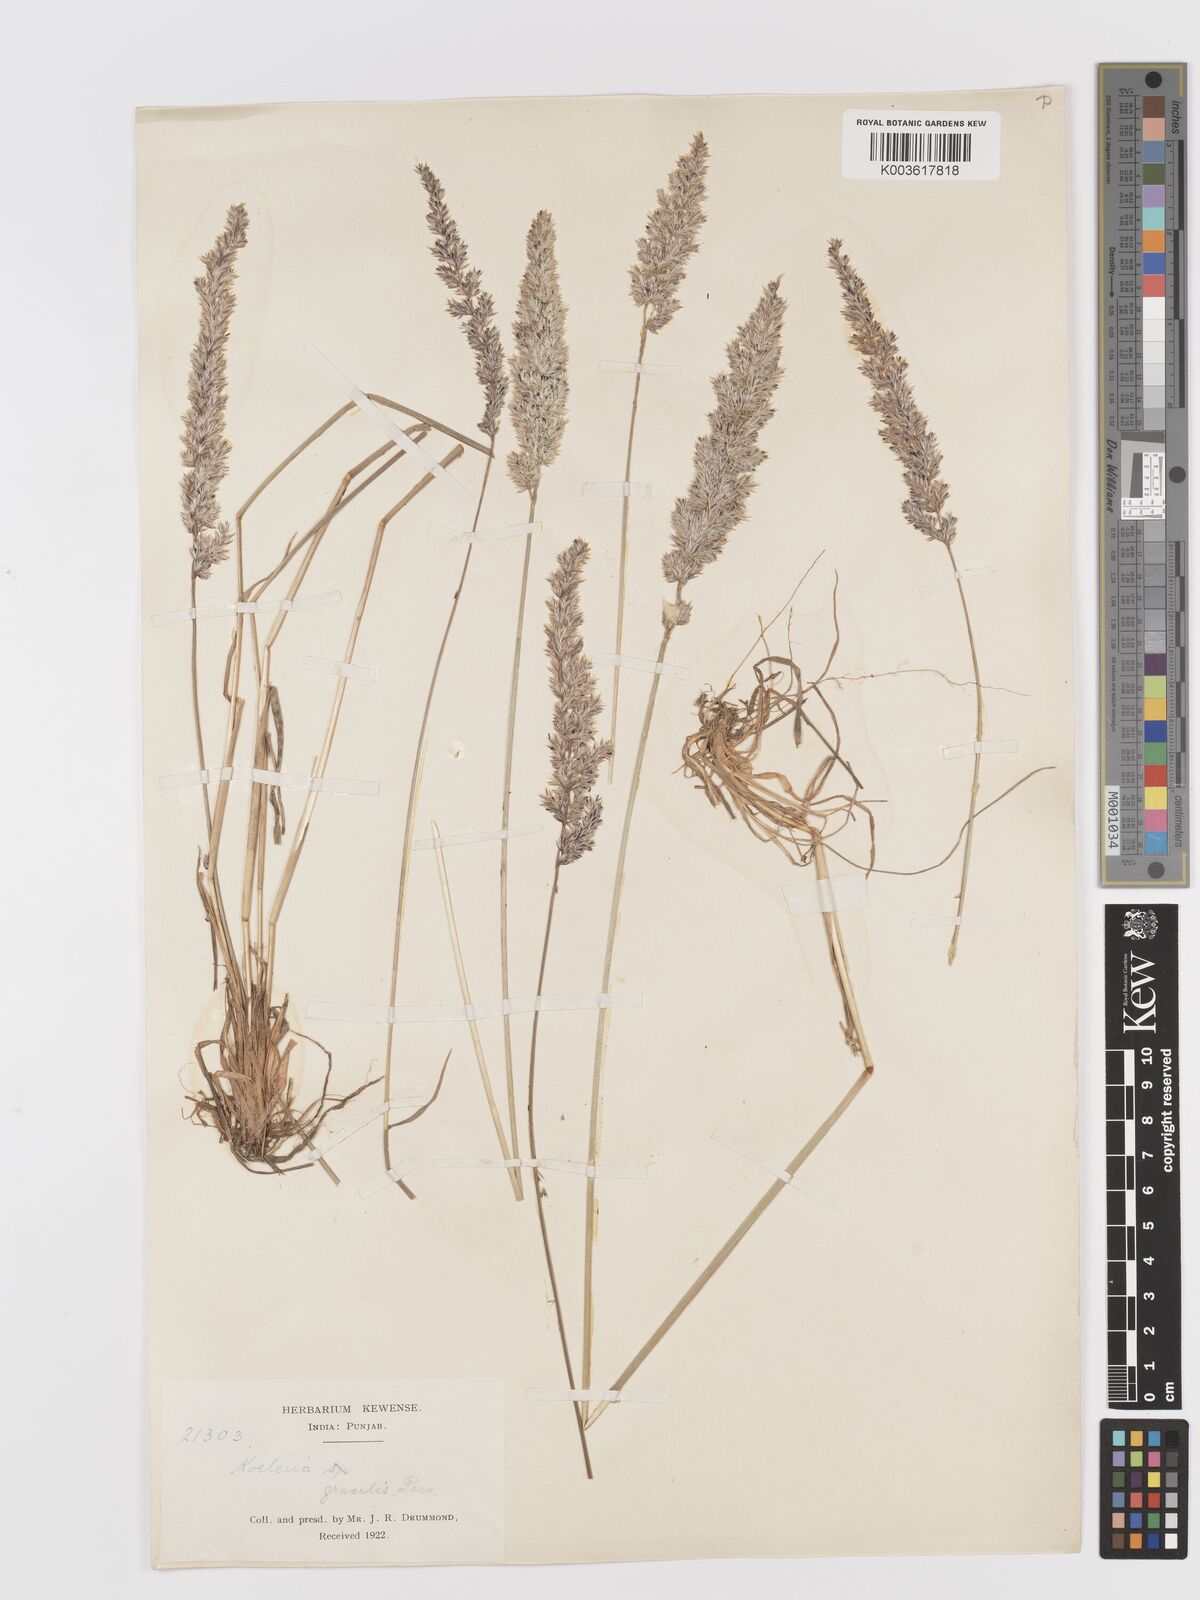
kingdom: Plantae
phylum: Tracheophyta
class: Liliopsida
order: Poales
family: Poaceae
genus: Koeleria
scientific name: Koeleria macrantha
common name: Crested hair-grass
